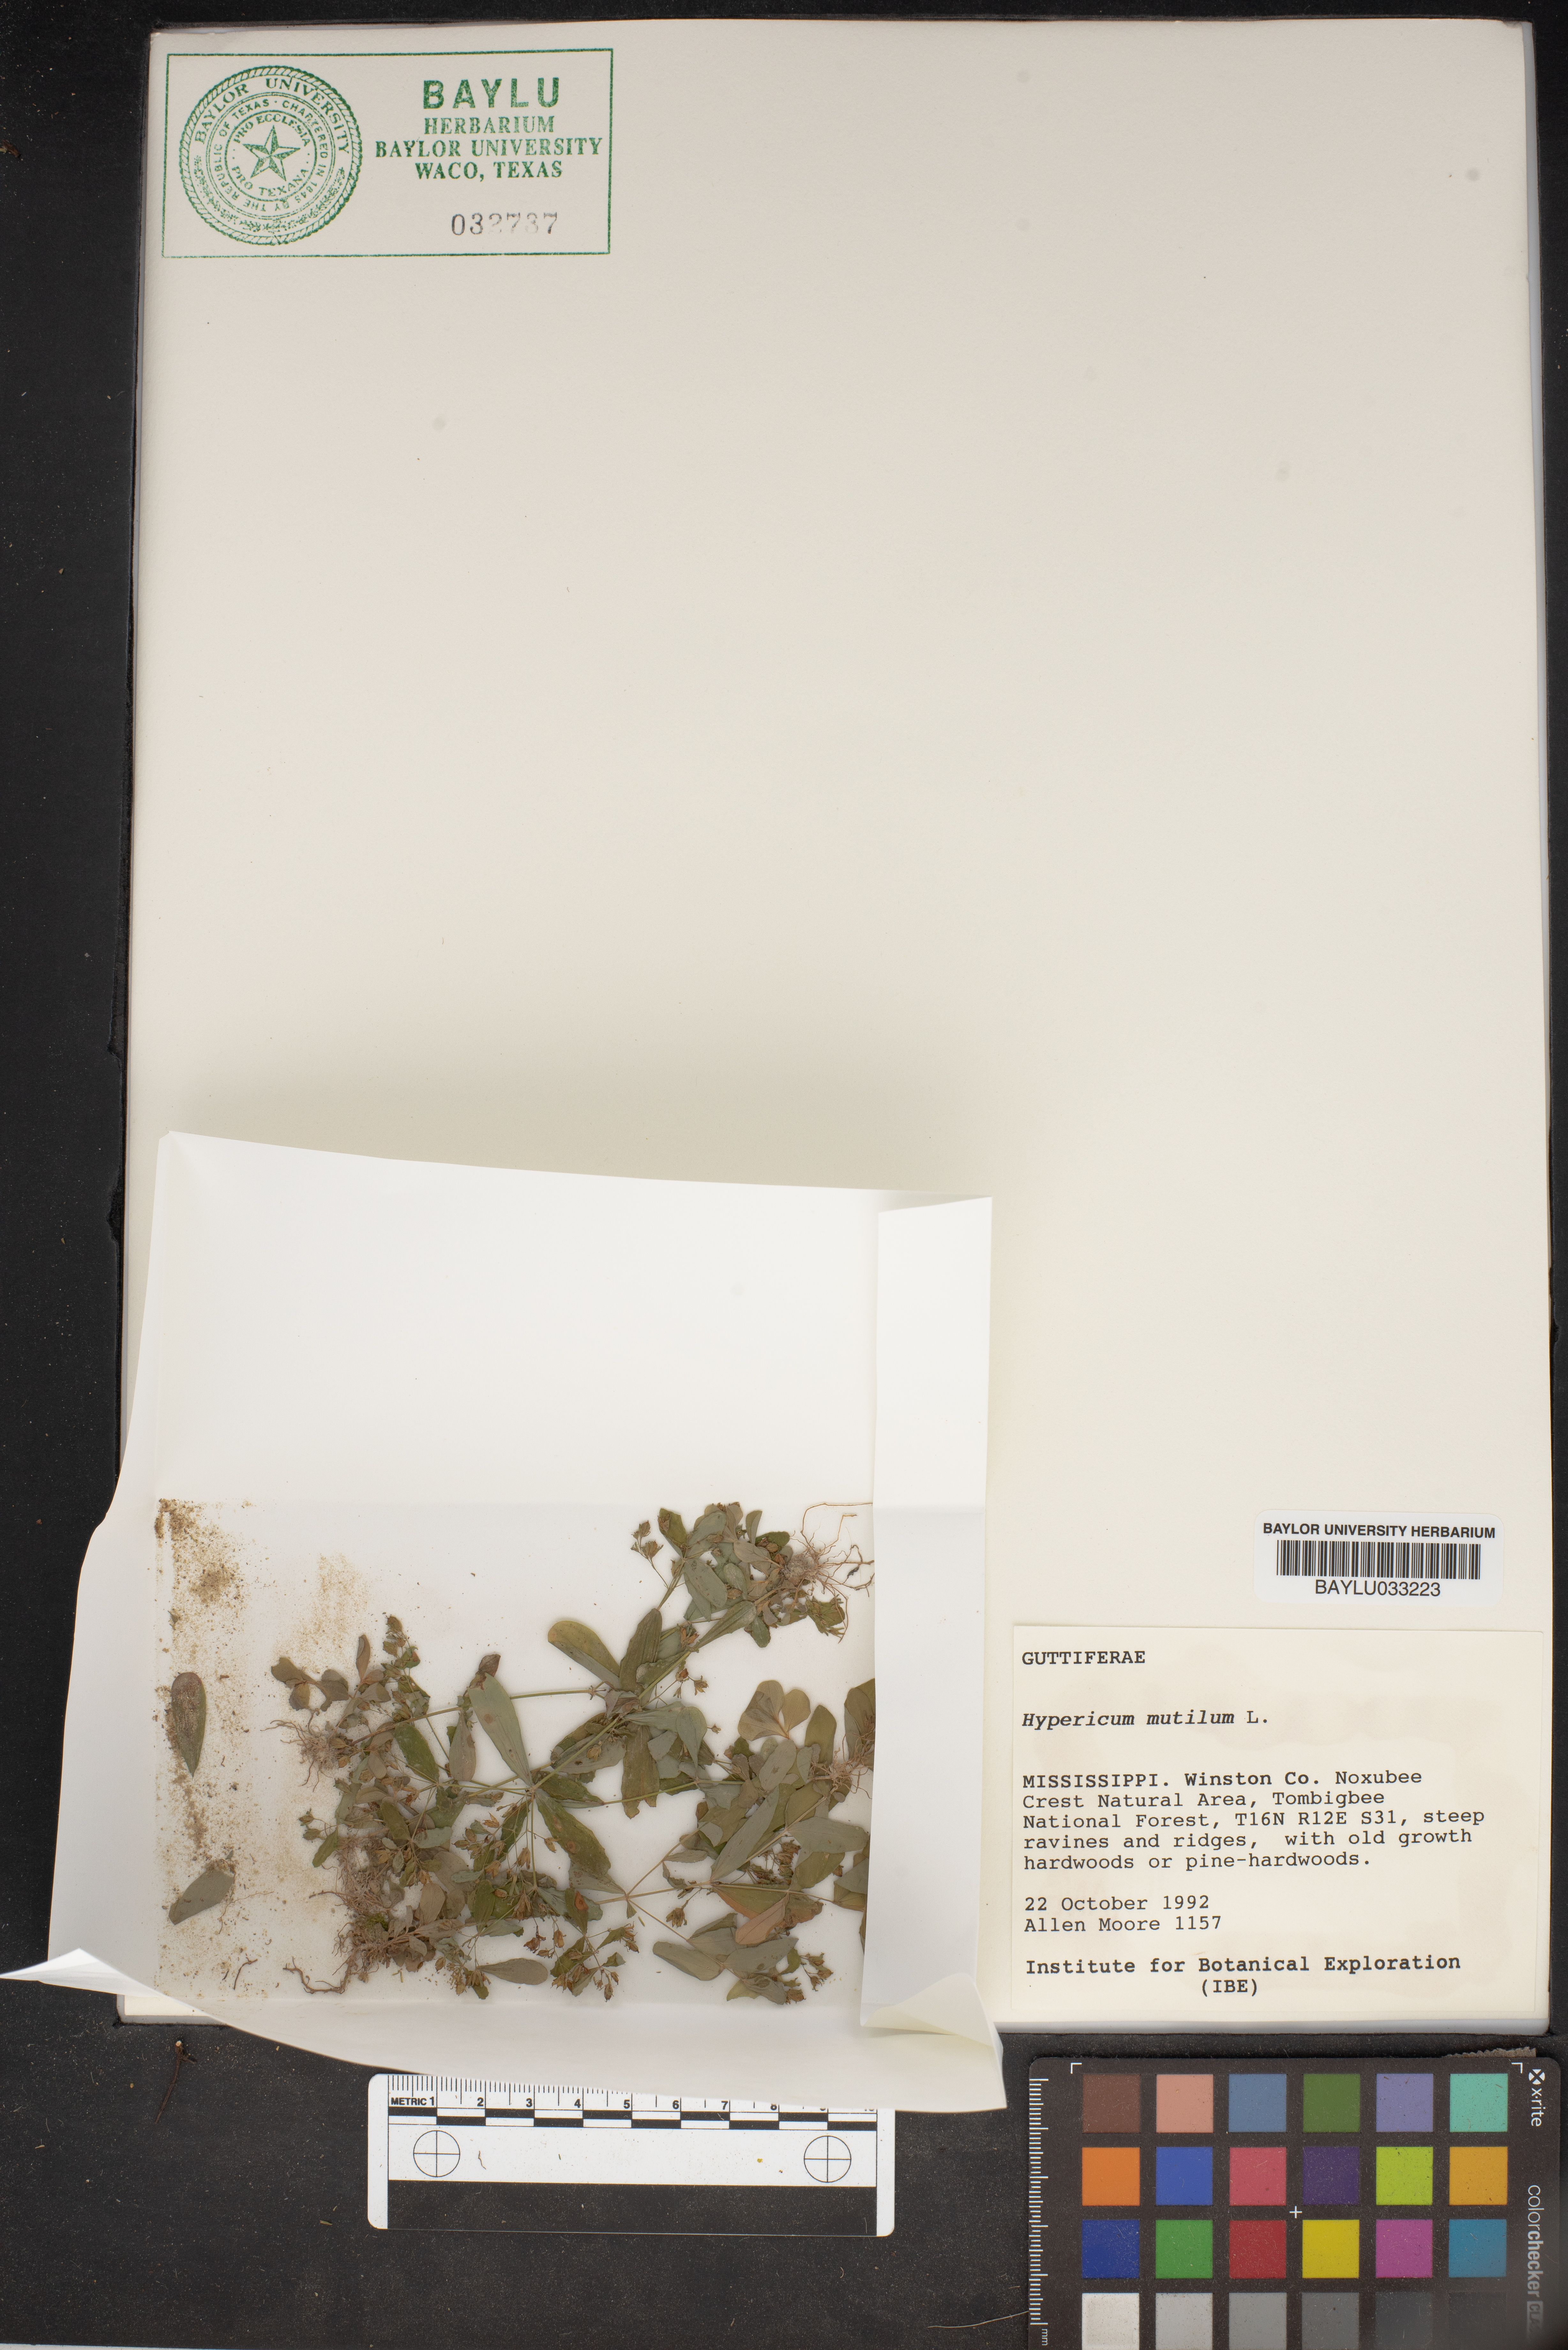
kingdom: Plantae
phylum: Tracheophyta
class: Magnoliopsida
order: Malpighiales
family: Hypericaceae
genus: Hypericum
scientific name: Hypericum mutilum
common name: Dwarf st. john's-wort
